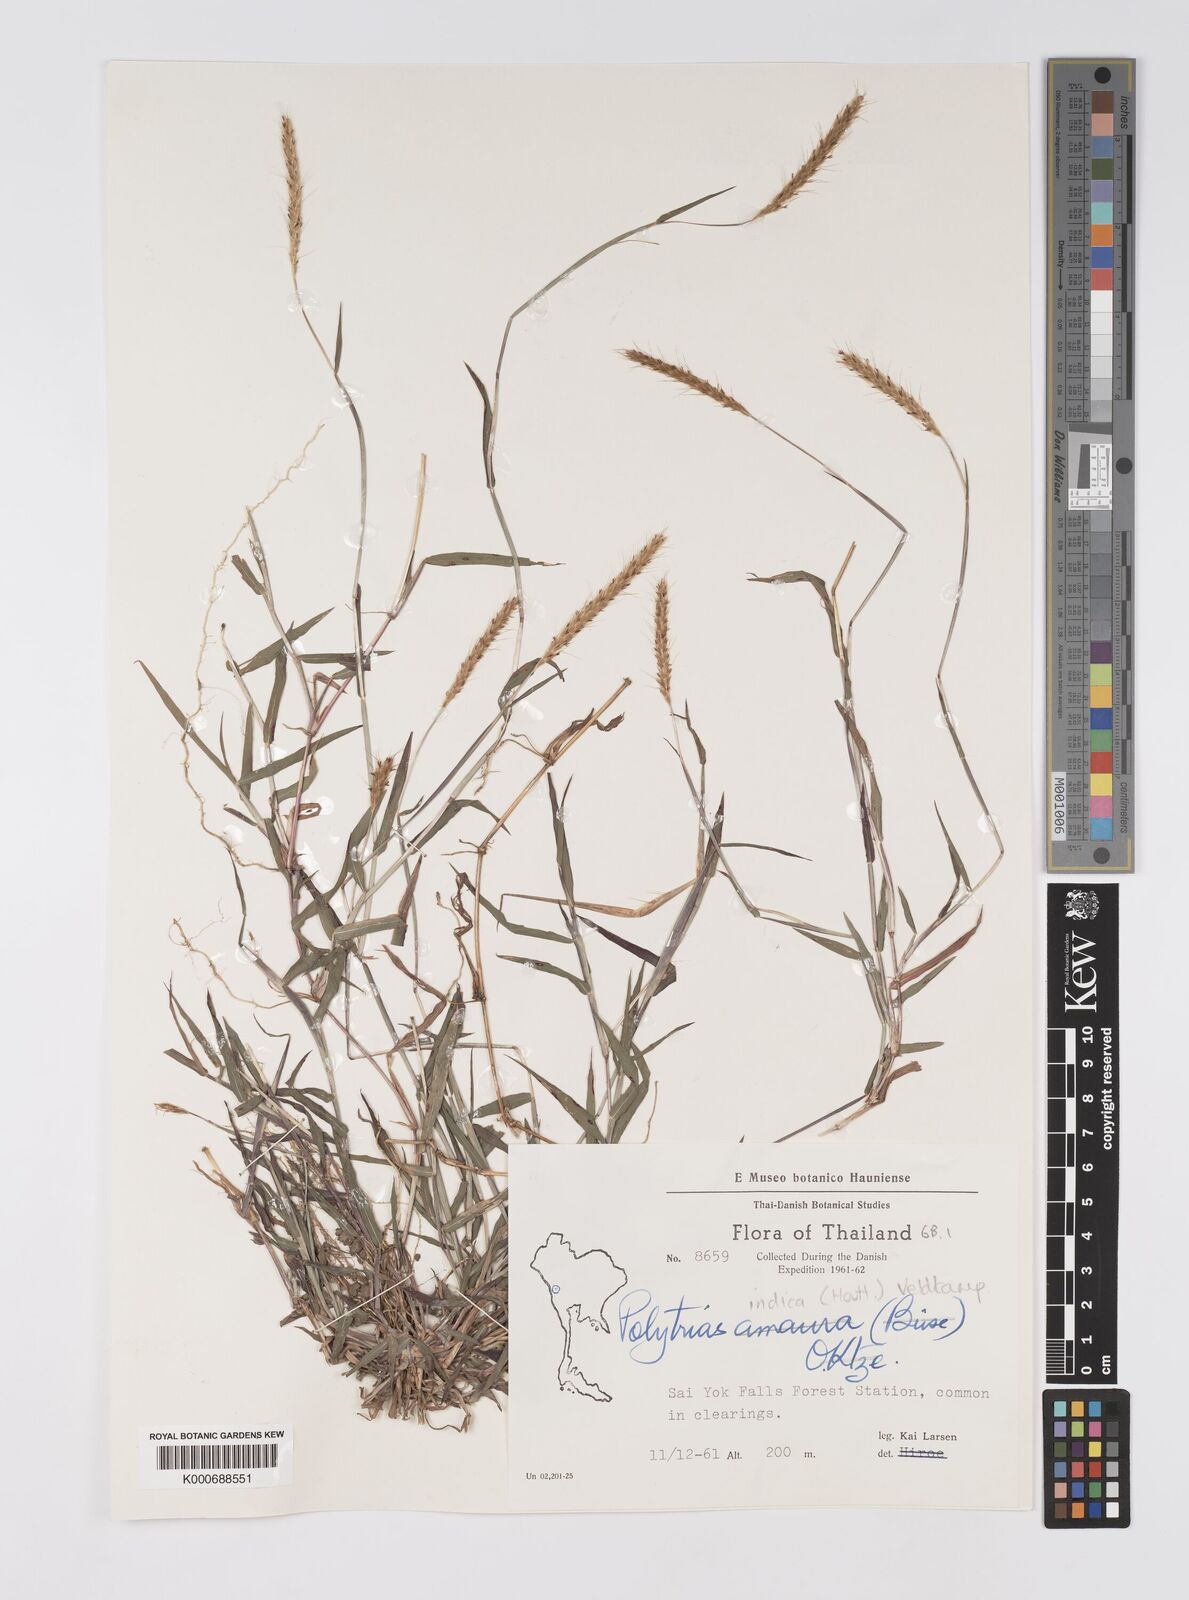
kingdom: Plantae
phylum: Tracheophyta
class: Liliopsida
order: Poales
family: Poaceae
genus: Polytrias
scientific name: Polytrias indica
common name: Indian murainagrass
